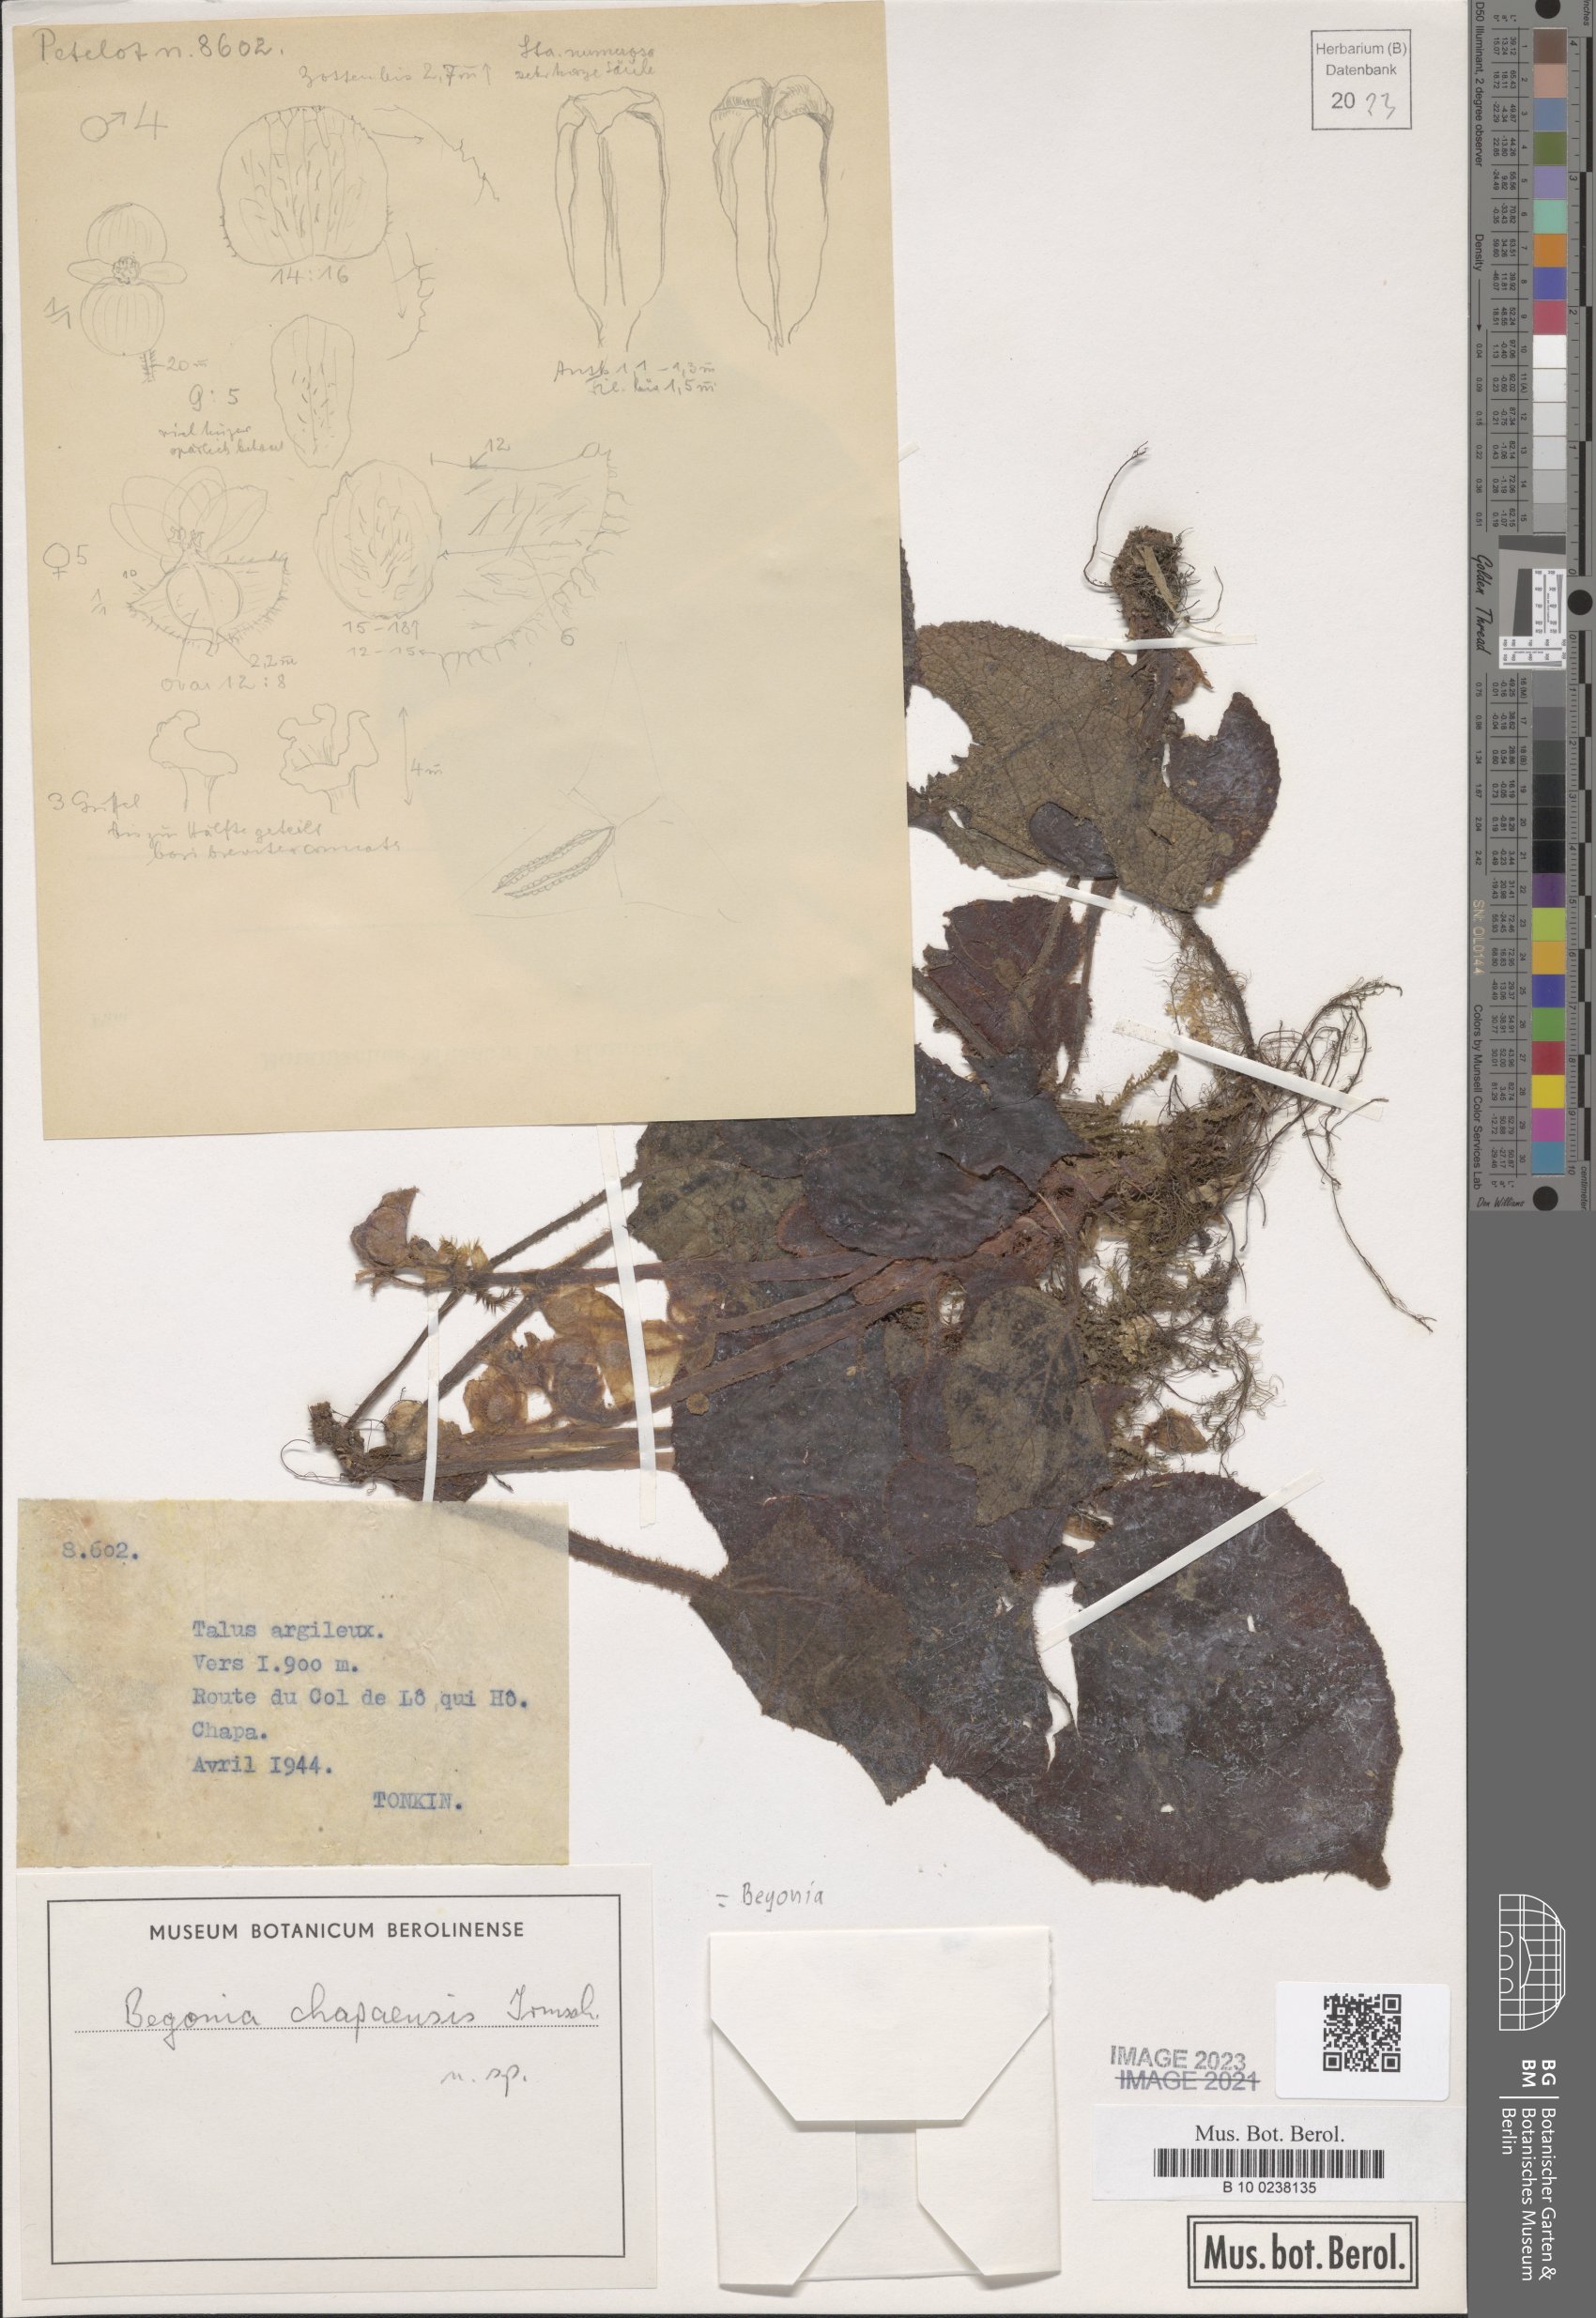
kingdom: Plantae
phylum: Tracheophyta
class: Magnoliopsida
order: Cucurbitales
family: Begoniaceae
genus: Begonia
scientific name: Begonia
